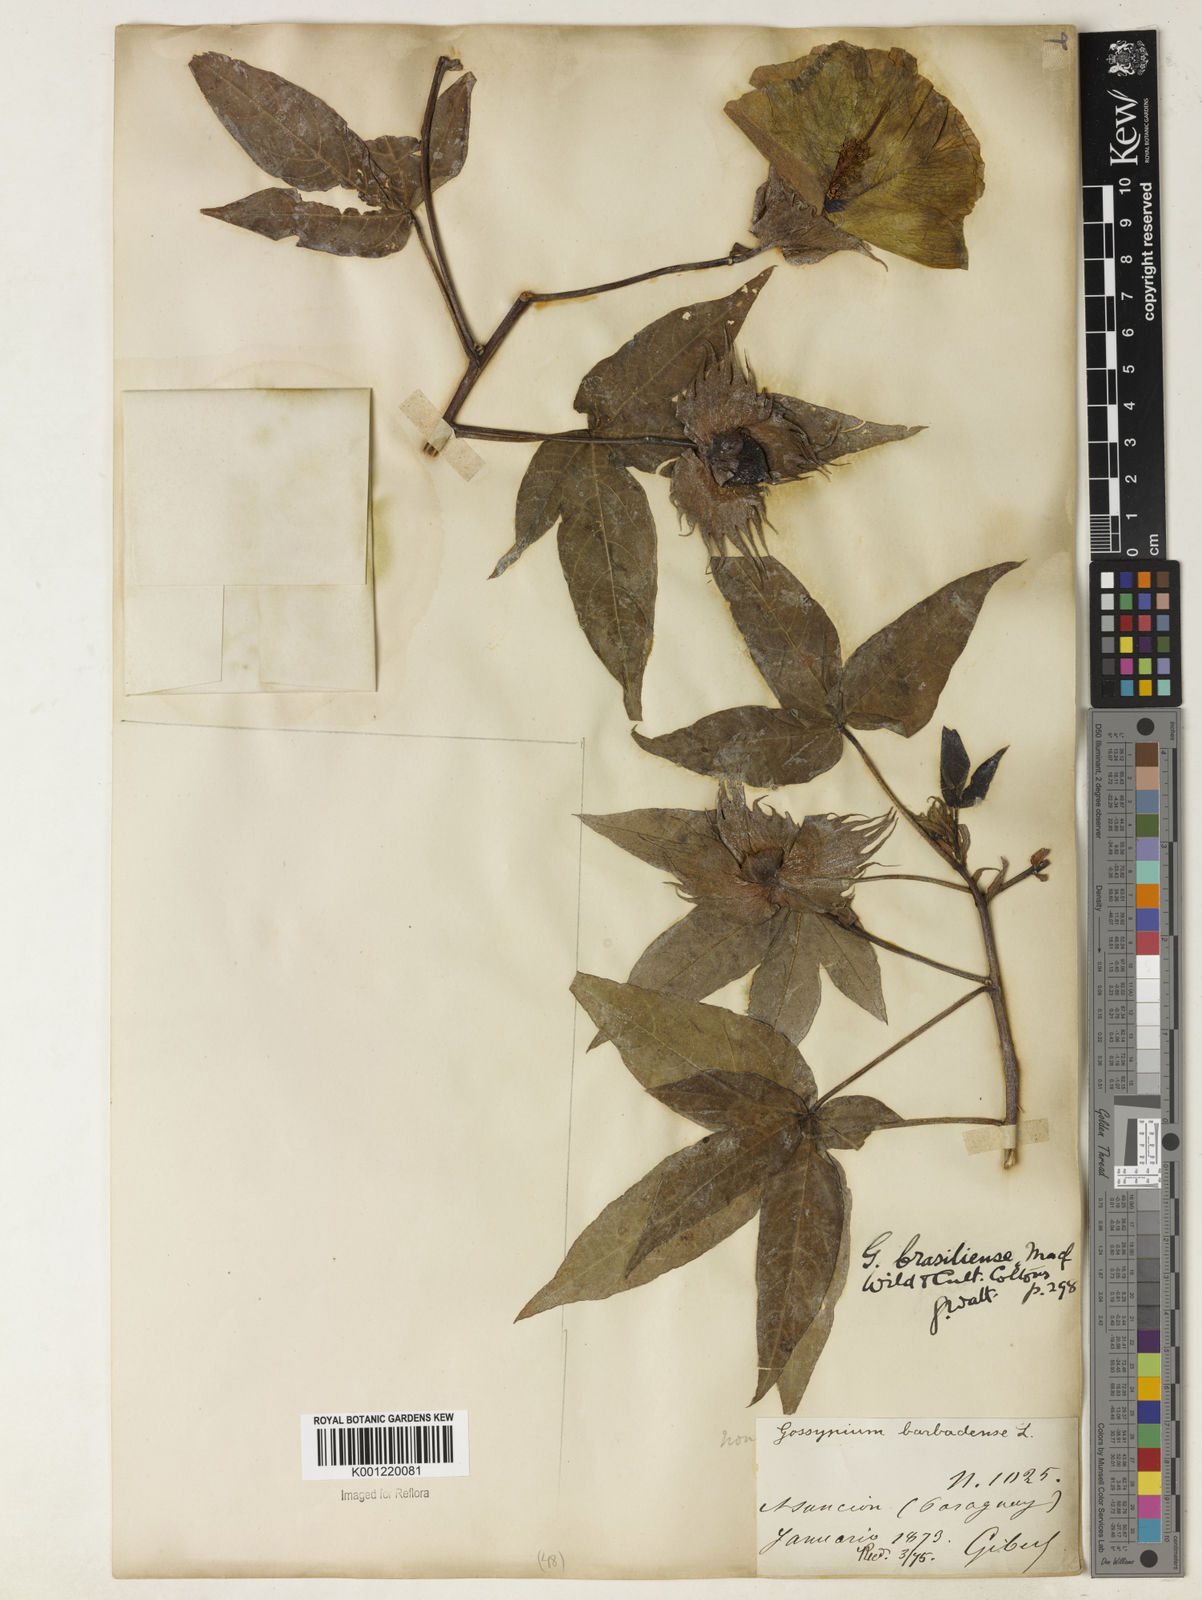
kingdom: Plantae
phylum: Tracheophyta
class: Magnoliopsida
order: Malvales
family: Malvaceae
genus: Gossypium
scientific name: Gossypium barbadense
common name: Creole cotton
